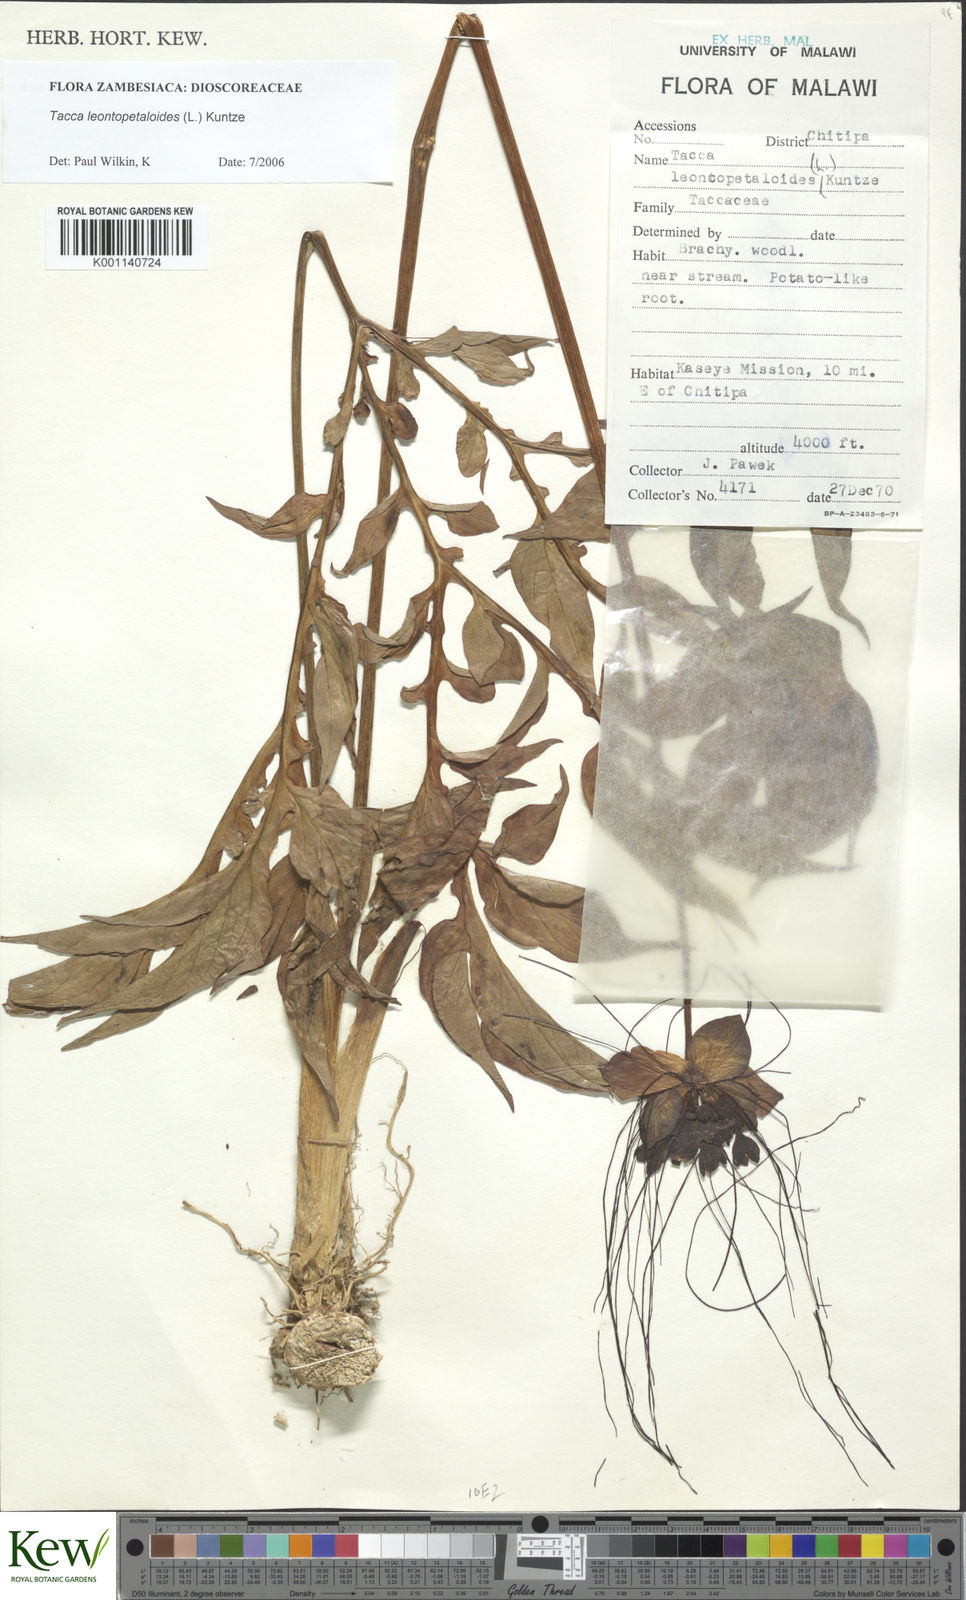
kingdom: Plantae
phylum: Tracheophyta
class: Liliopsida
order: Dioscoreales
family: Dioscoreaceae
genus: Tacca
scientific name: Tacca leontopetaloides
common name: Arrowroot
